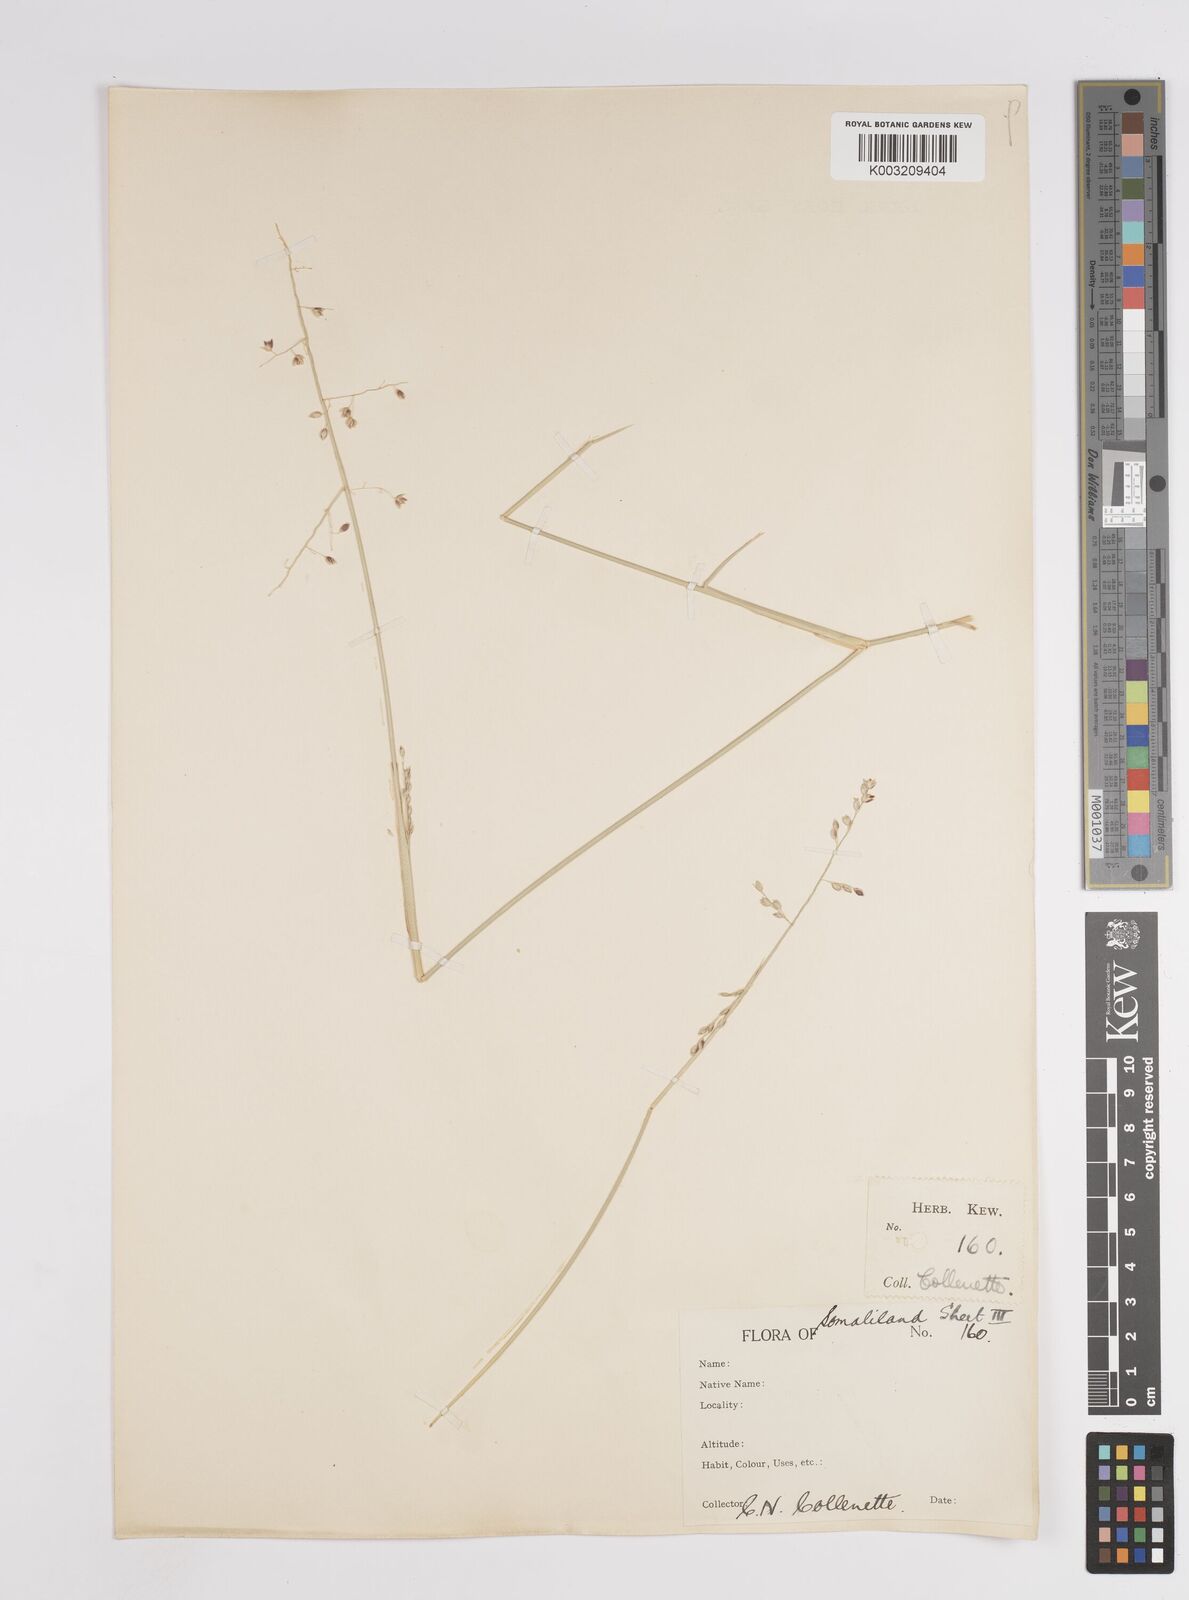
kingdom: Plantae
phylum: Tracheophyta
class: Liliopsida
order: Poales
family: Poaceae
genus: Panicum
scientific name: Panicum turgidum
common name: Desert grass
